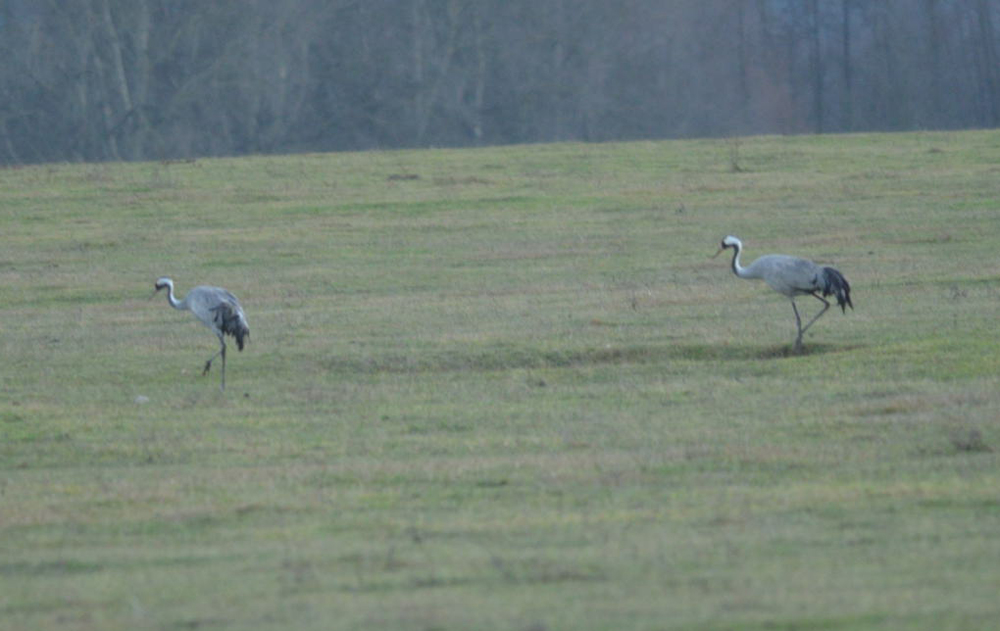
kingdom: Animalia
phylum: Chordata
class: Aves
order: Gruiformes
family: Gruidae
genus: Grus
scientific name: Grus grus
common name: Common crane
